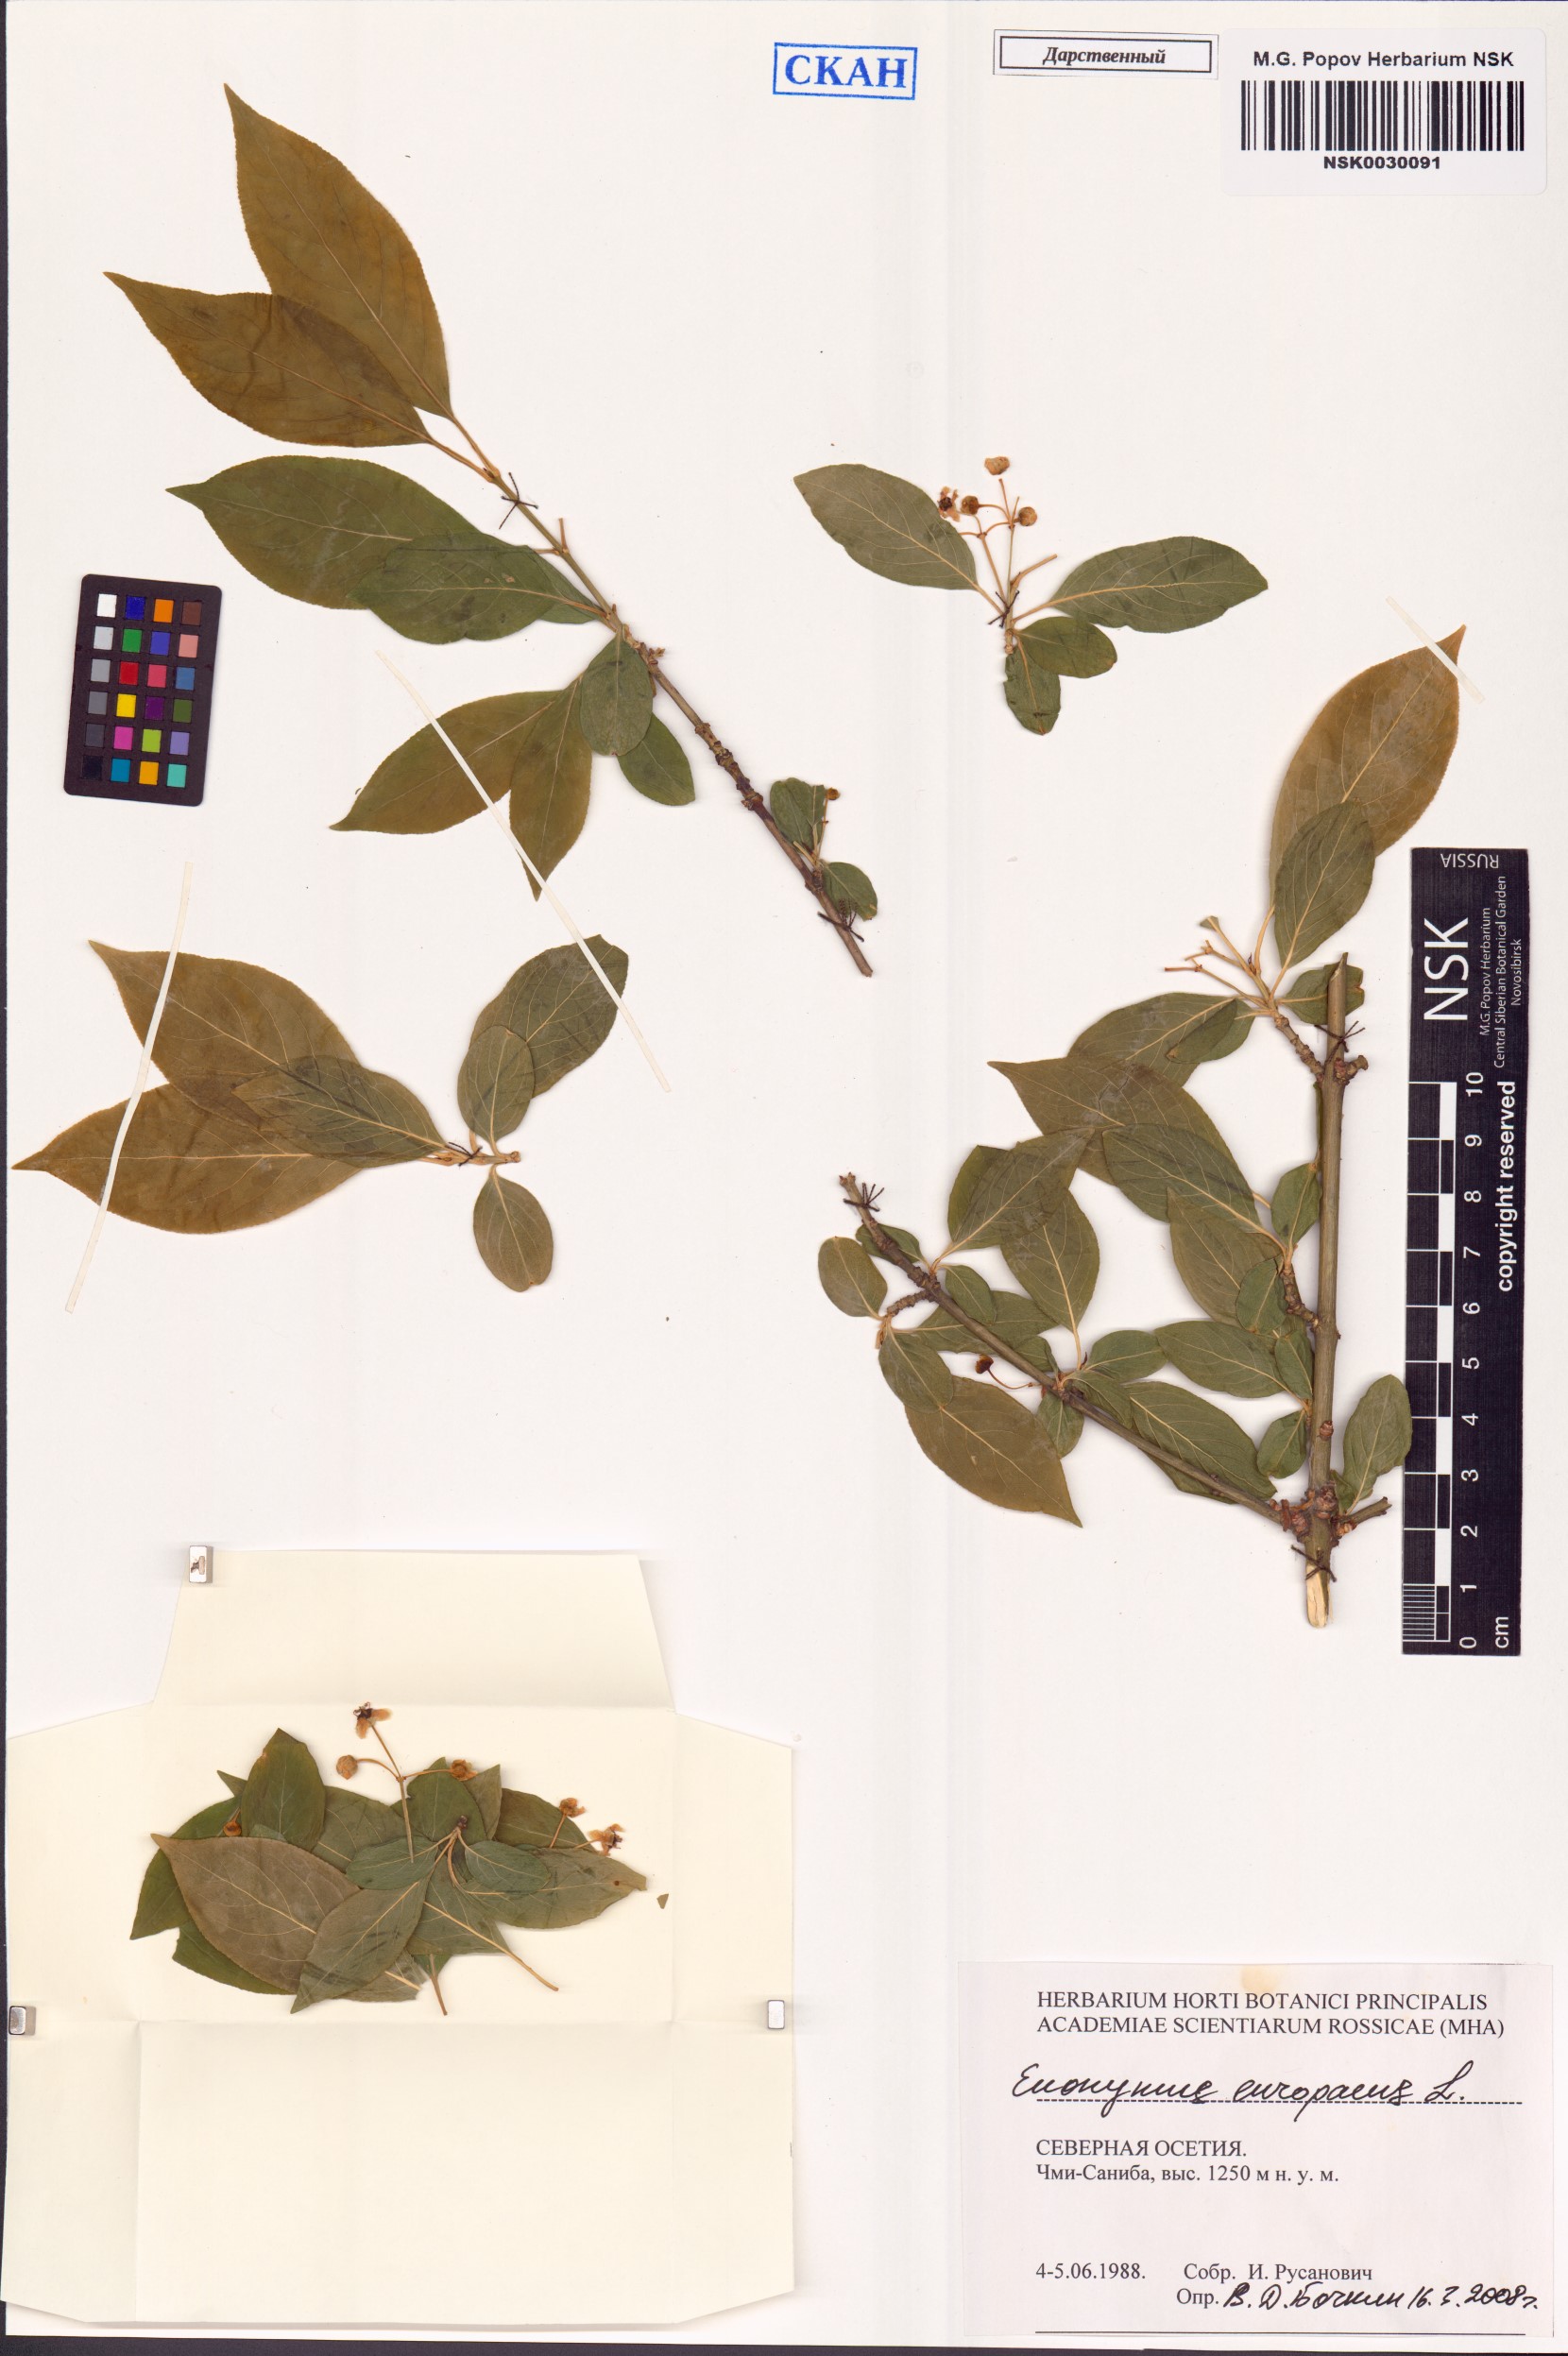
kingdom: Plantae
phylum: Tracheophyta
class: Magnoliopsida
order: Celastrales
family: Celastraceae
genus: Euonymus
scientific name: Euonymus europaeus
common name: Spindle
